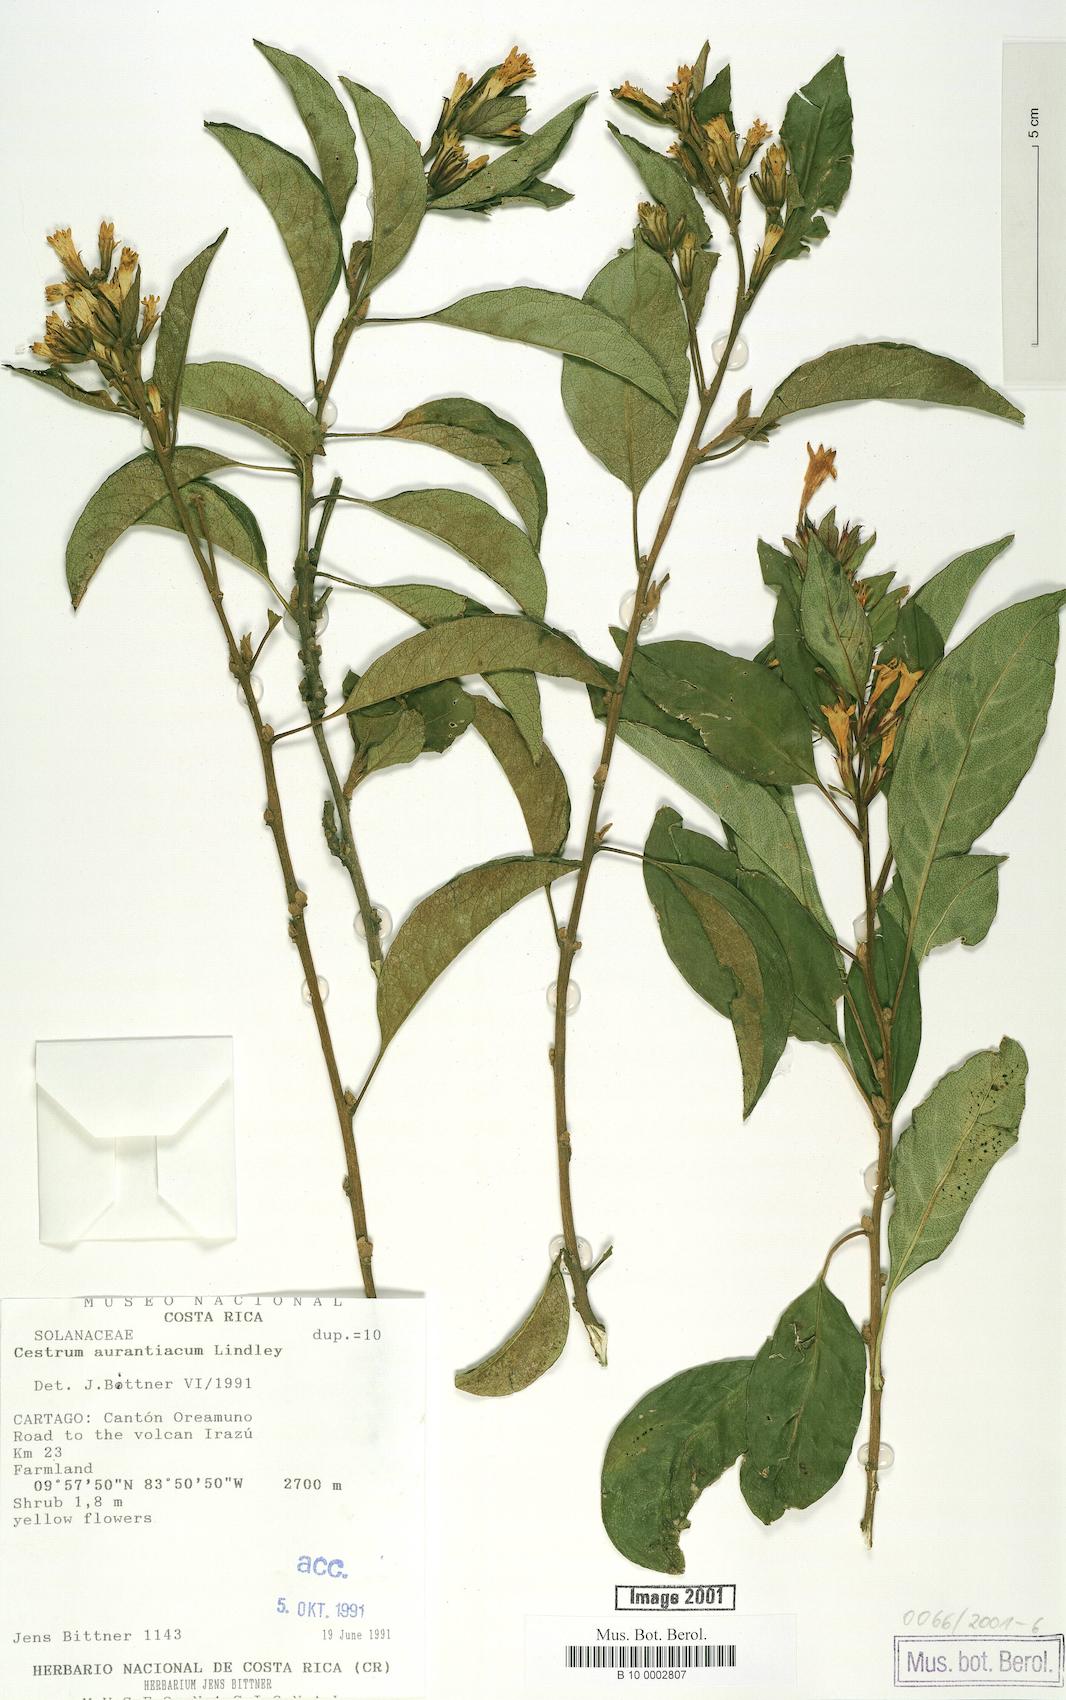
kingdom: Plantae
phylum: Tracheophyta
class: Magnoliopsida
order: Solanales
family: Solanaceae
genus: Cestrum
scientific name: Cestrum aurantiacum
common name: Orange cestrum
